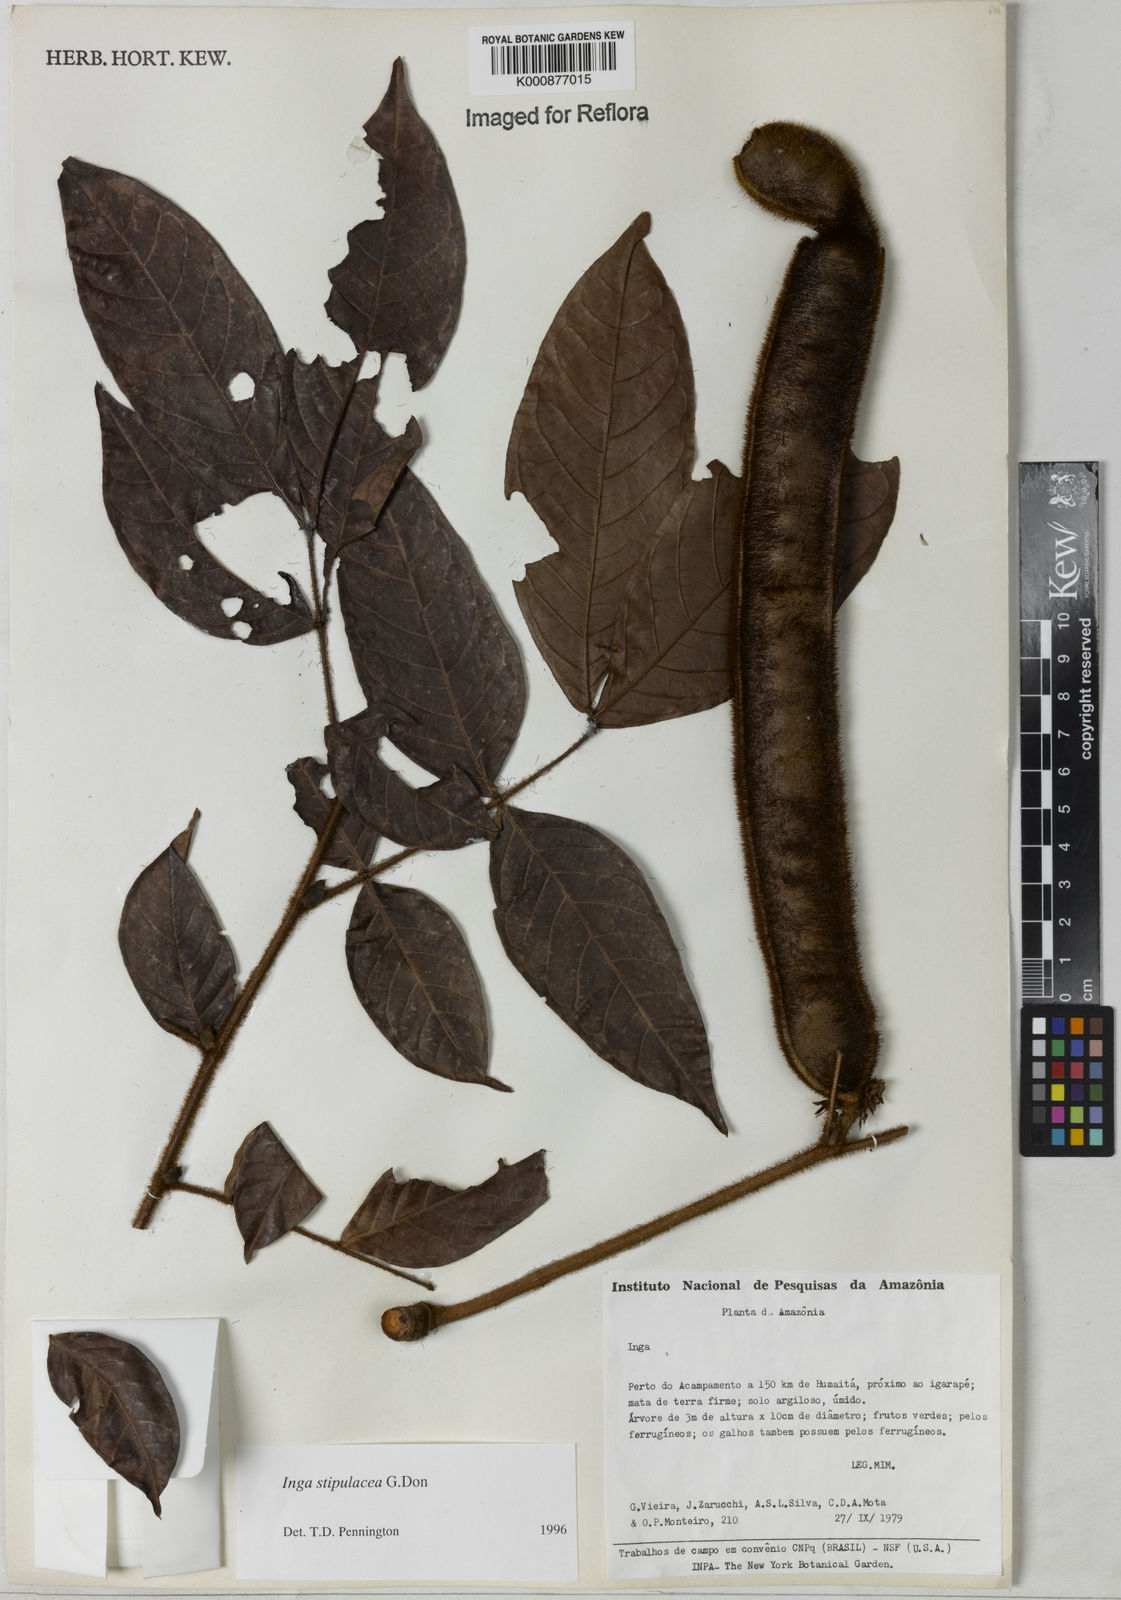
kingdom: Plantae
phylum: Tracheophyta
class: Magnoliopsida
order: Fabales
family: Fabaceae
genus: Inga
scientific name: Inga stipulacea
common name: Stipulate inga
